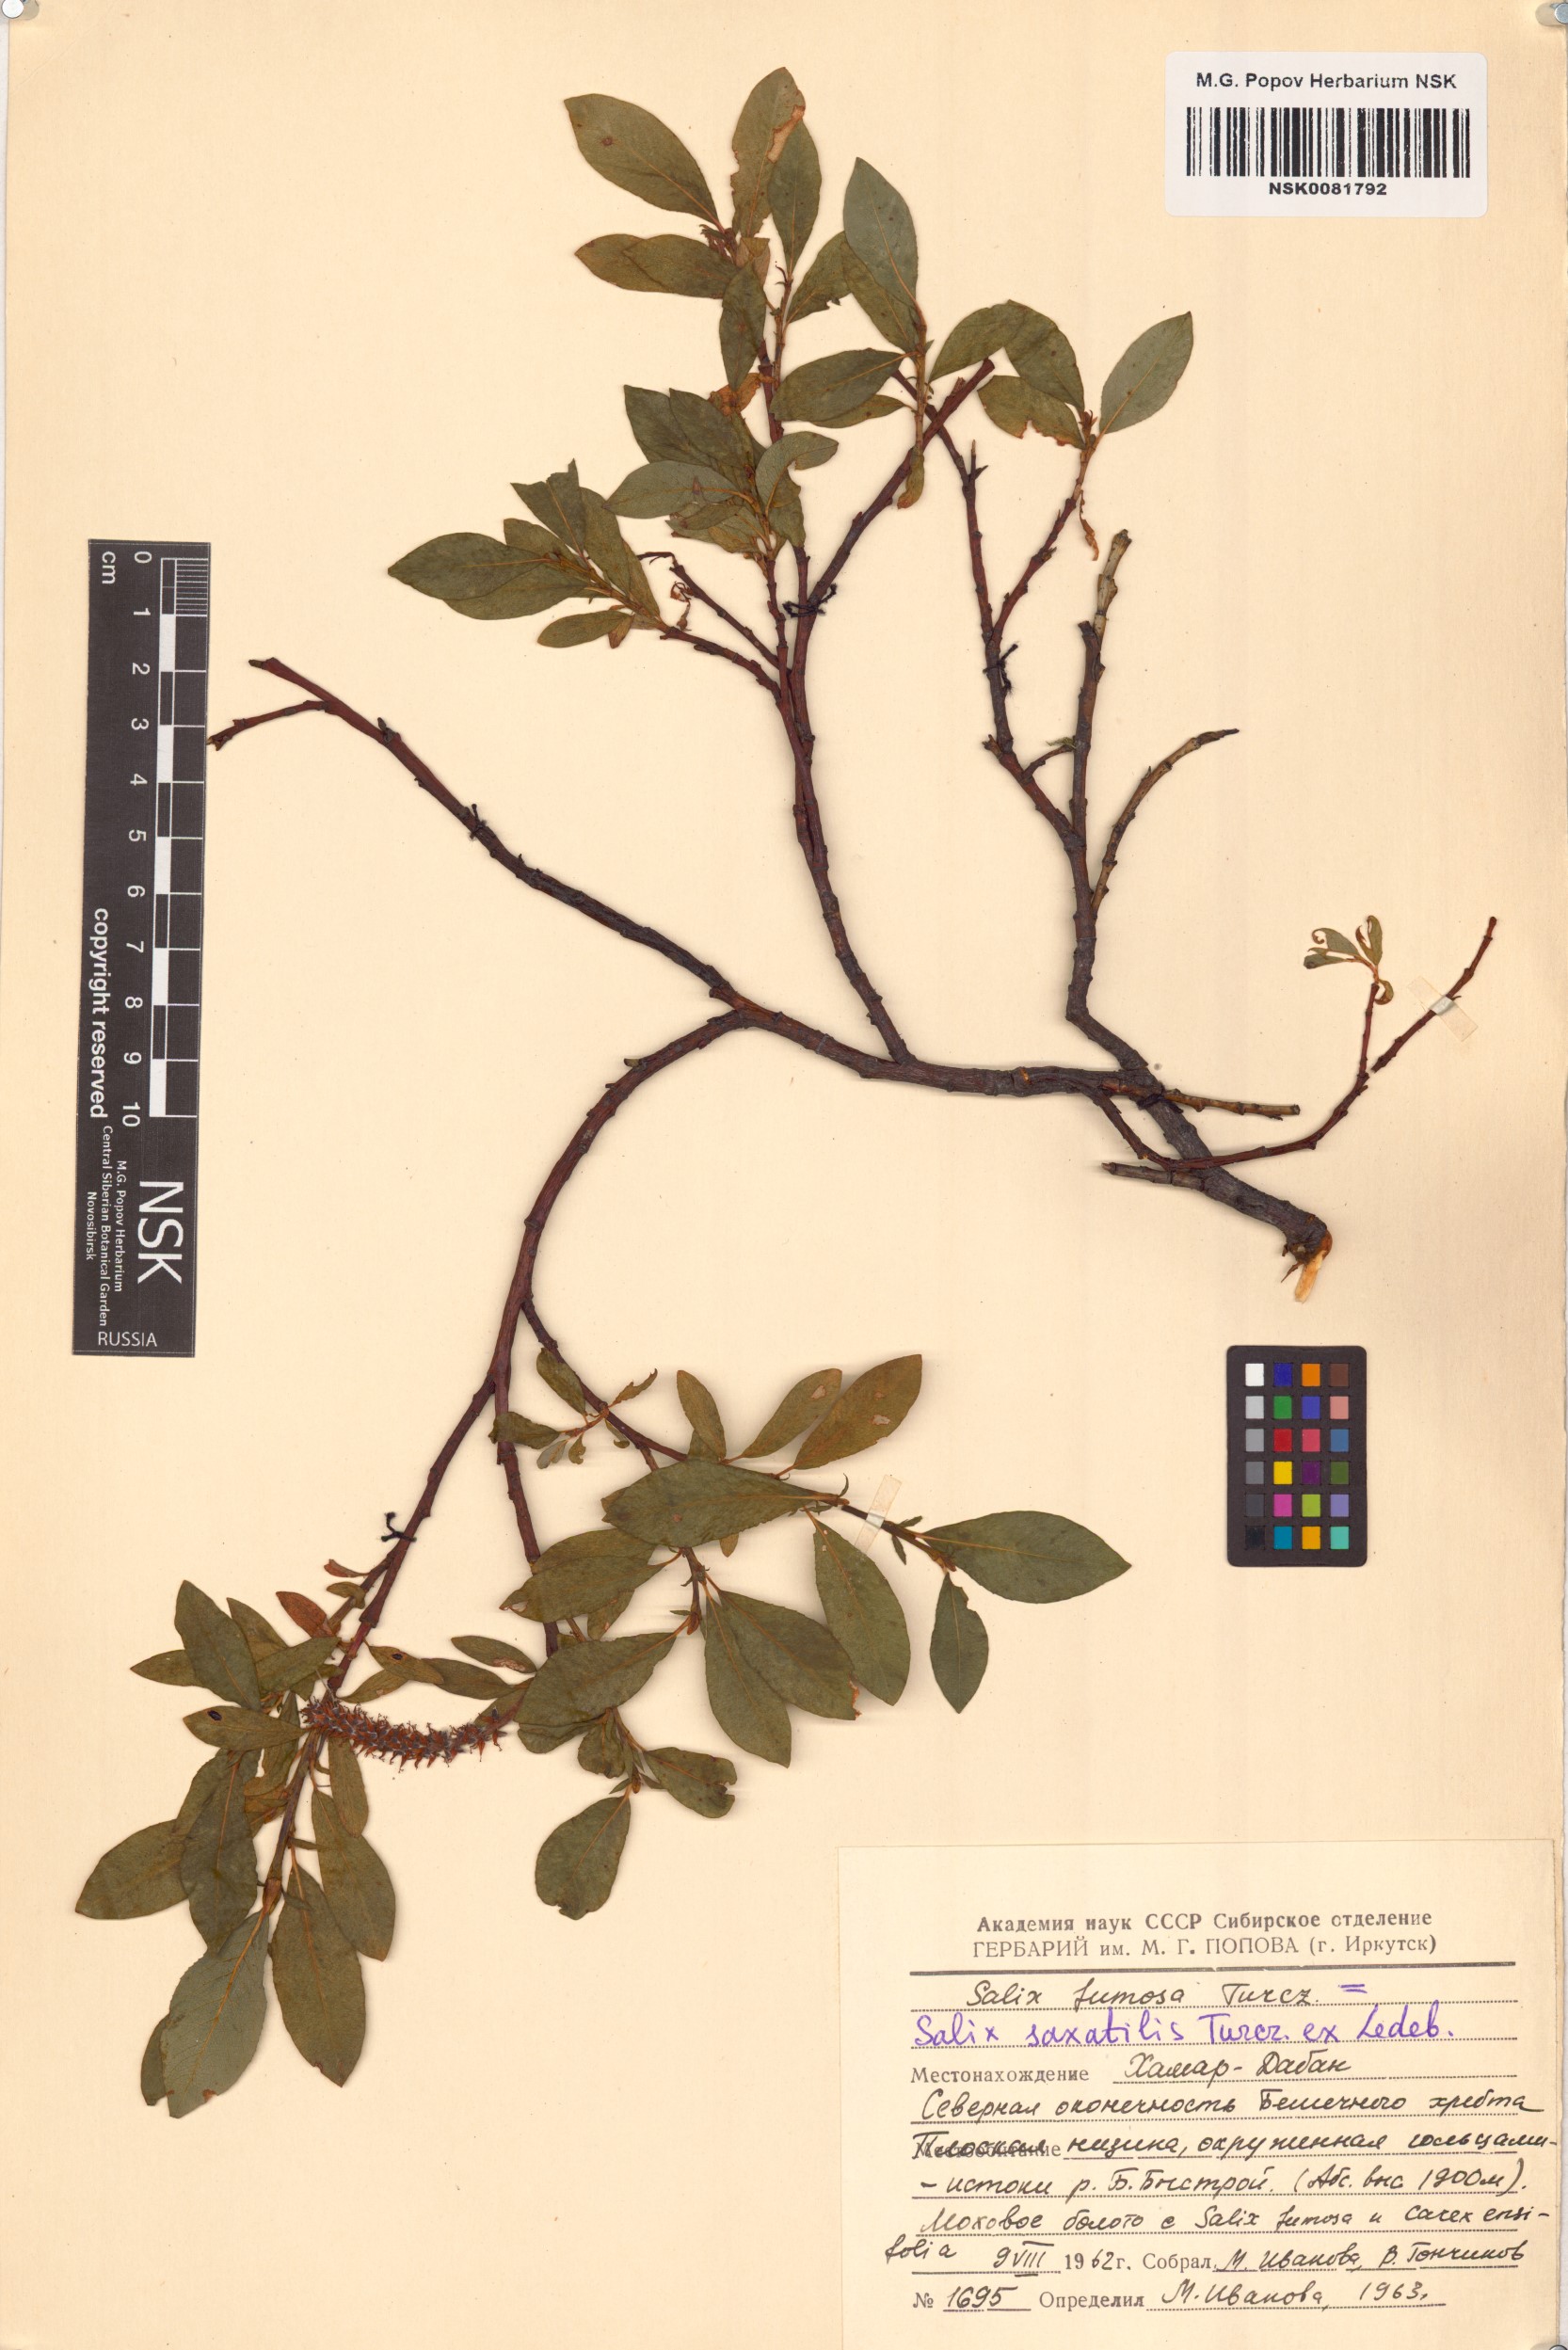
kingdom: Plantae
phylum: Tracheophyta
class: Magnoliopsida
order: Malpighiales
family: Salicaceae
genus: Salix
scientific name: Salix saxatilis
